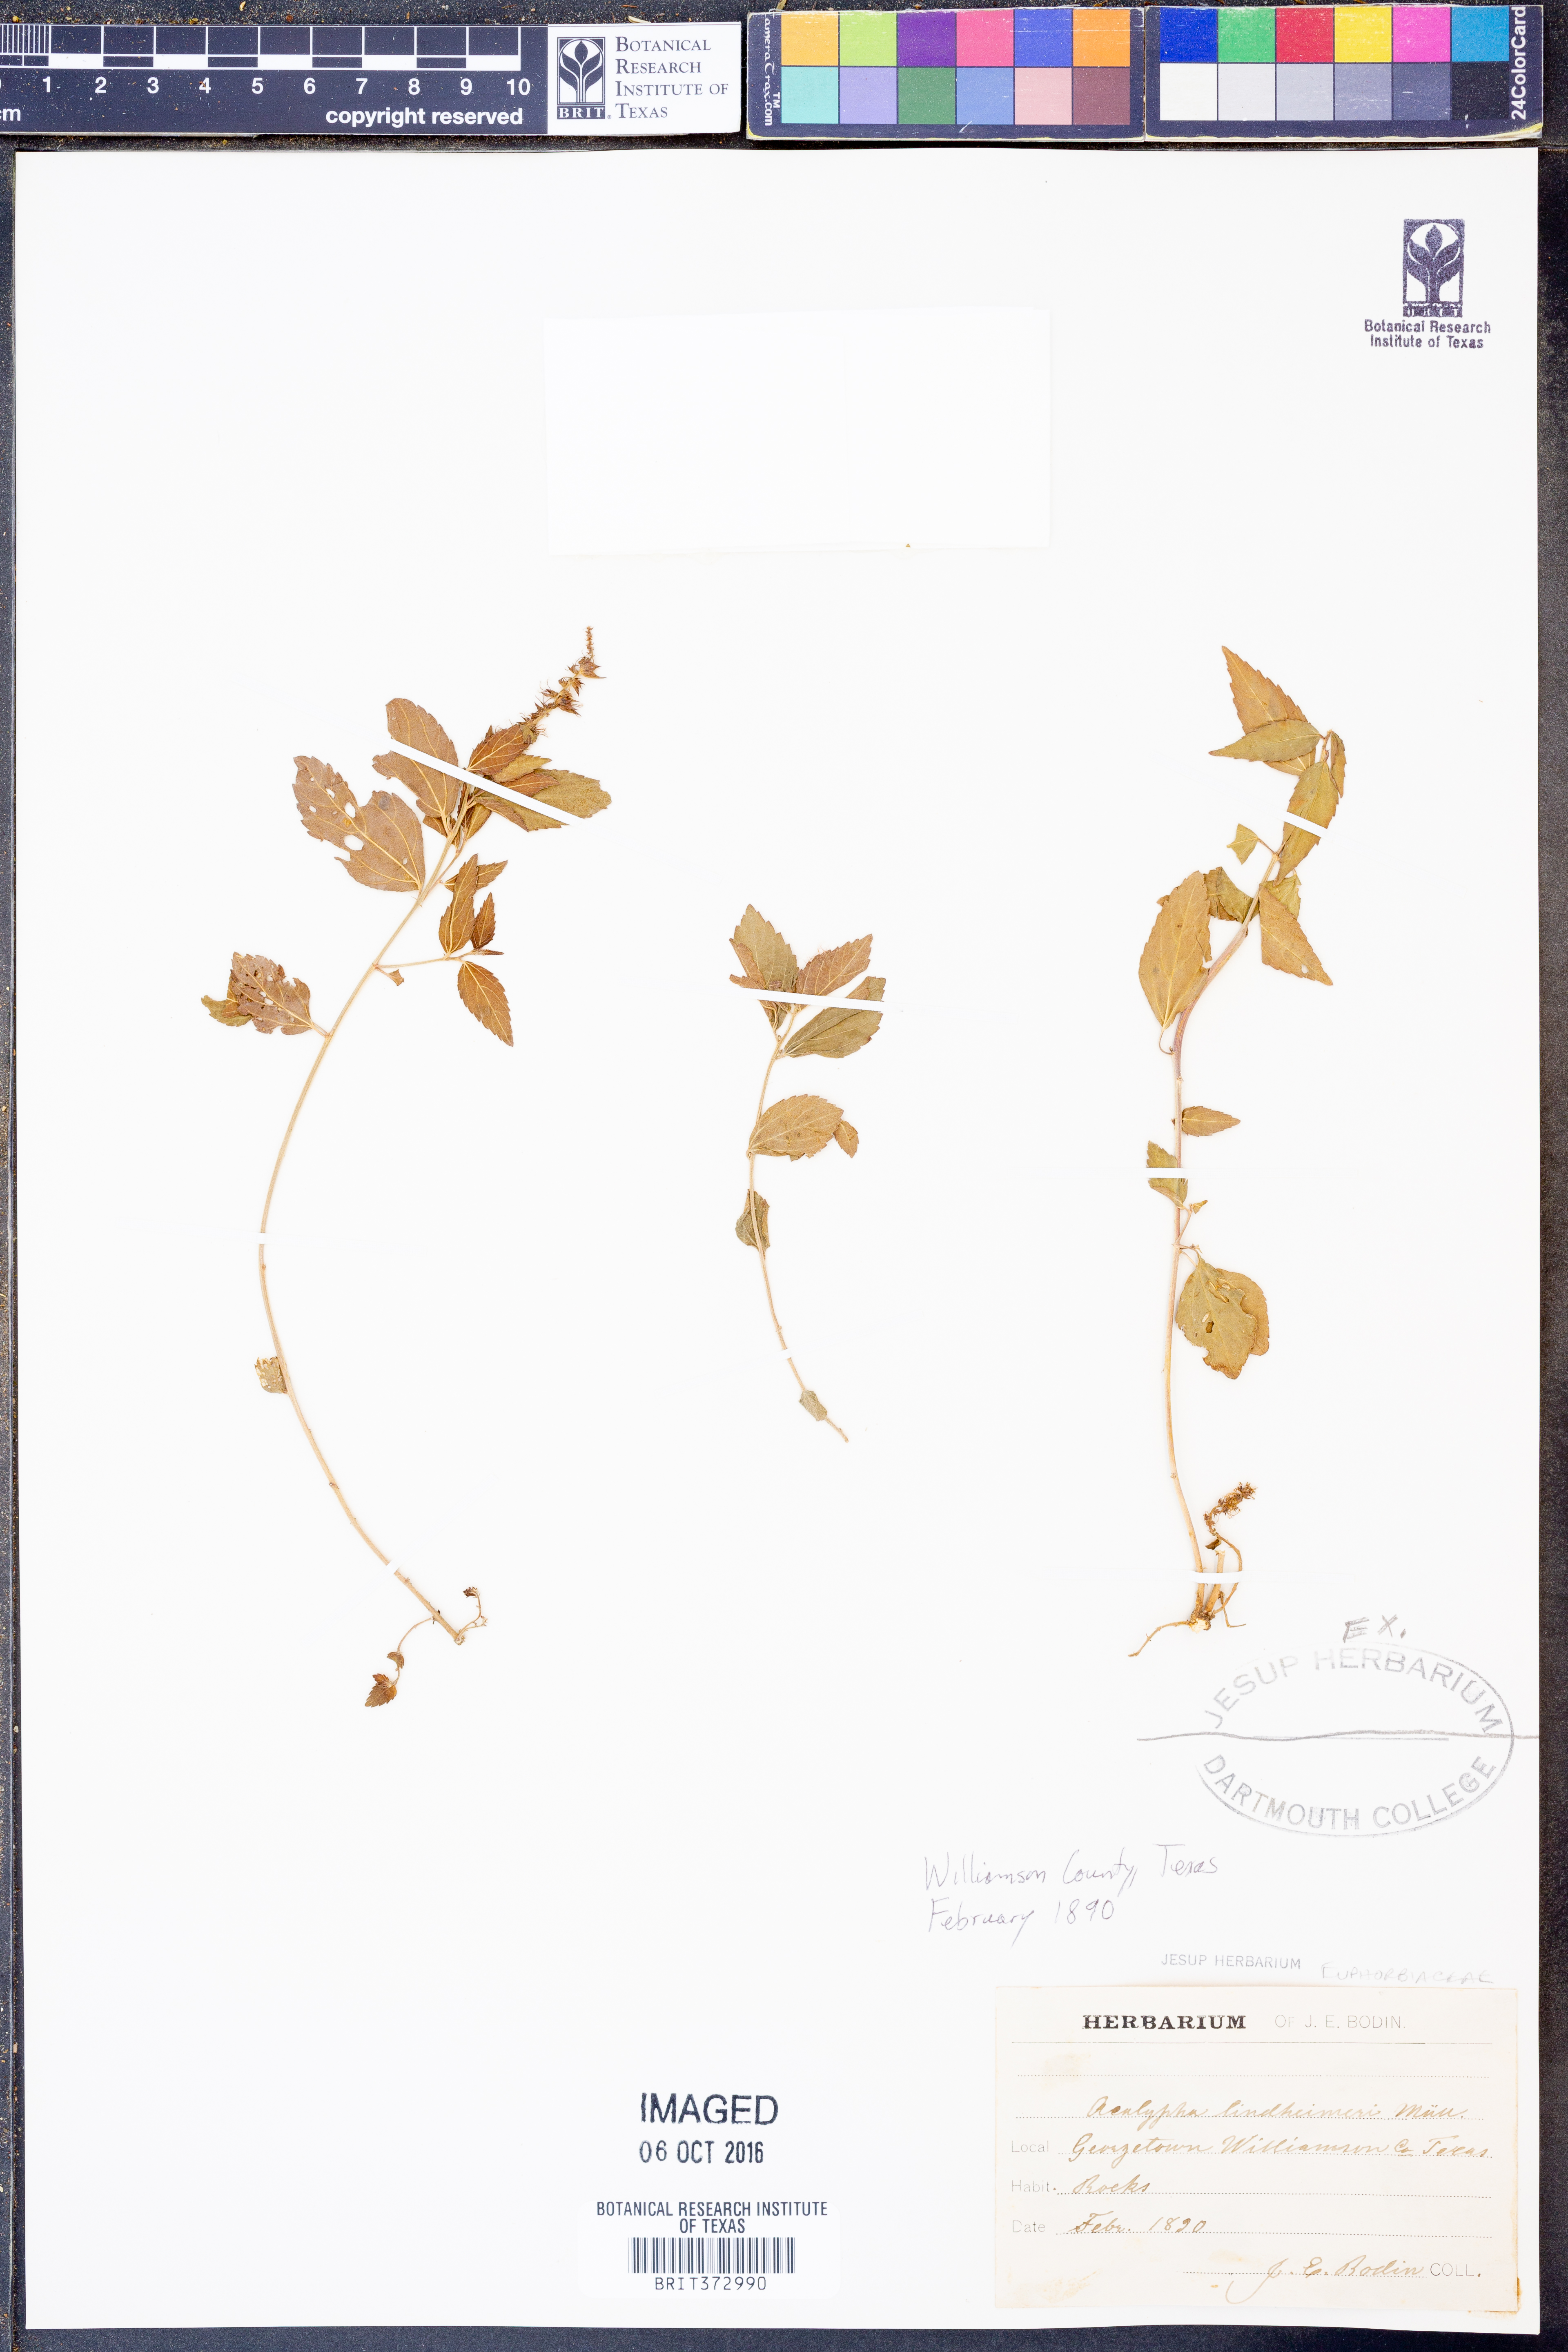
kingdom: Plantae
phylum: Tracheophyta
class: Magnoliopsida
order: Malpighiales
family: Euphorbiaceae
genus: Acalypha
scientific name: Acalypha phleoides
